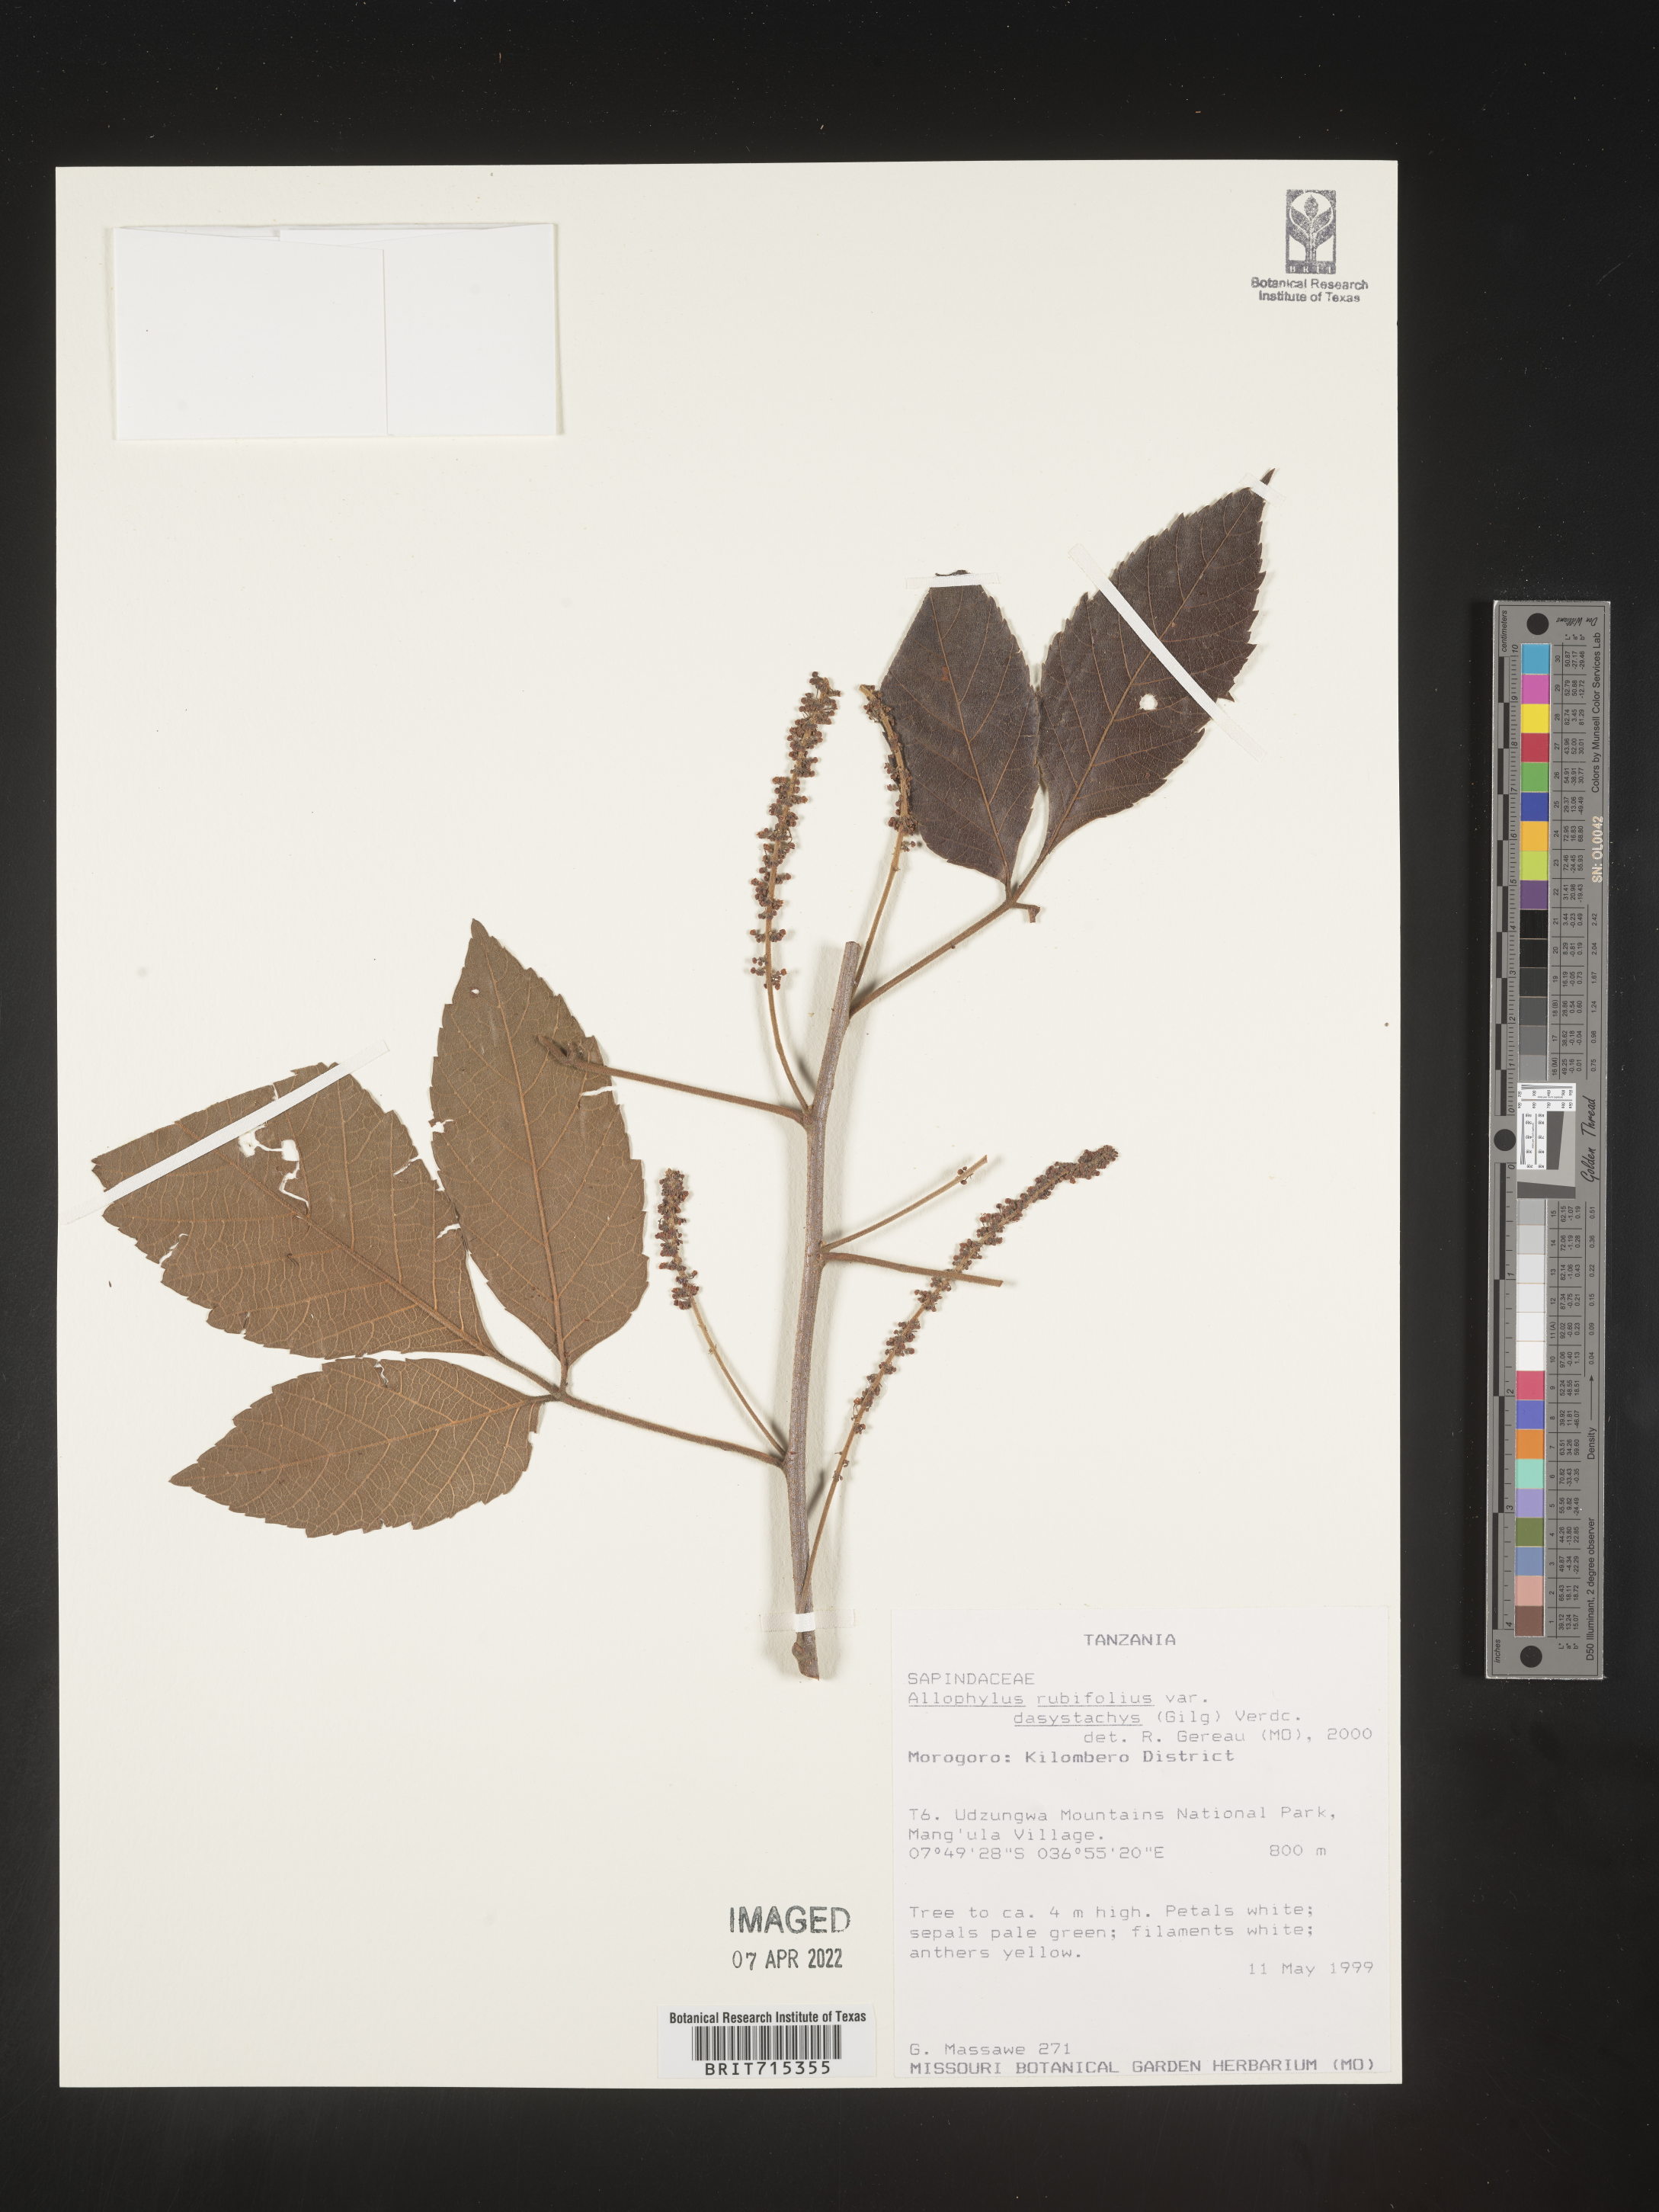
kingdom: Plantae
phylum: Tracheophyta
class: Magnoliopsida
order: Sapindales
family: Sapindaceae
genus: Allophylus
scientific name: Allophylus rubifolius
